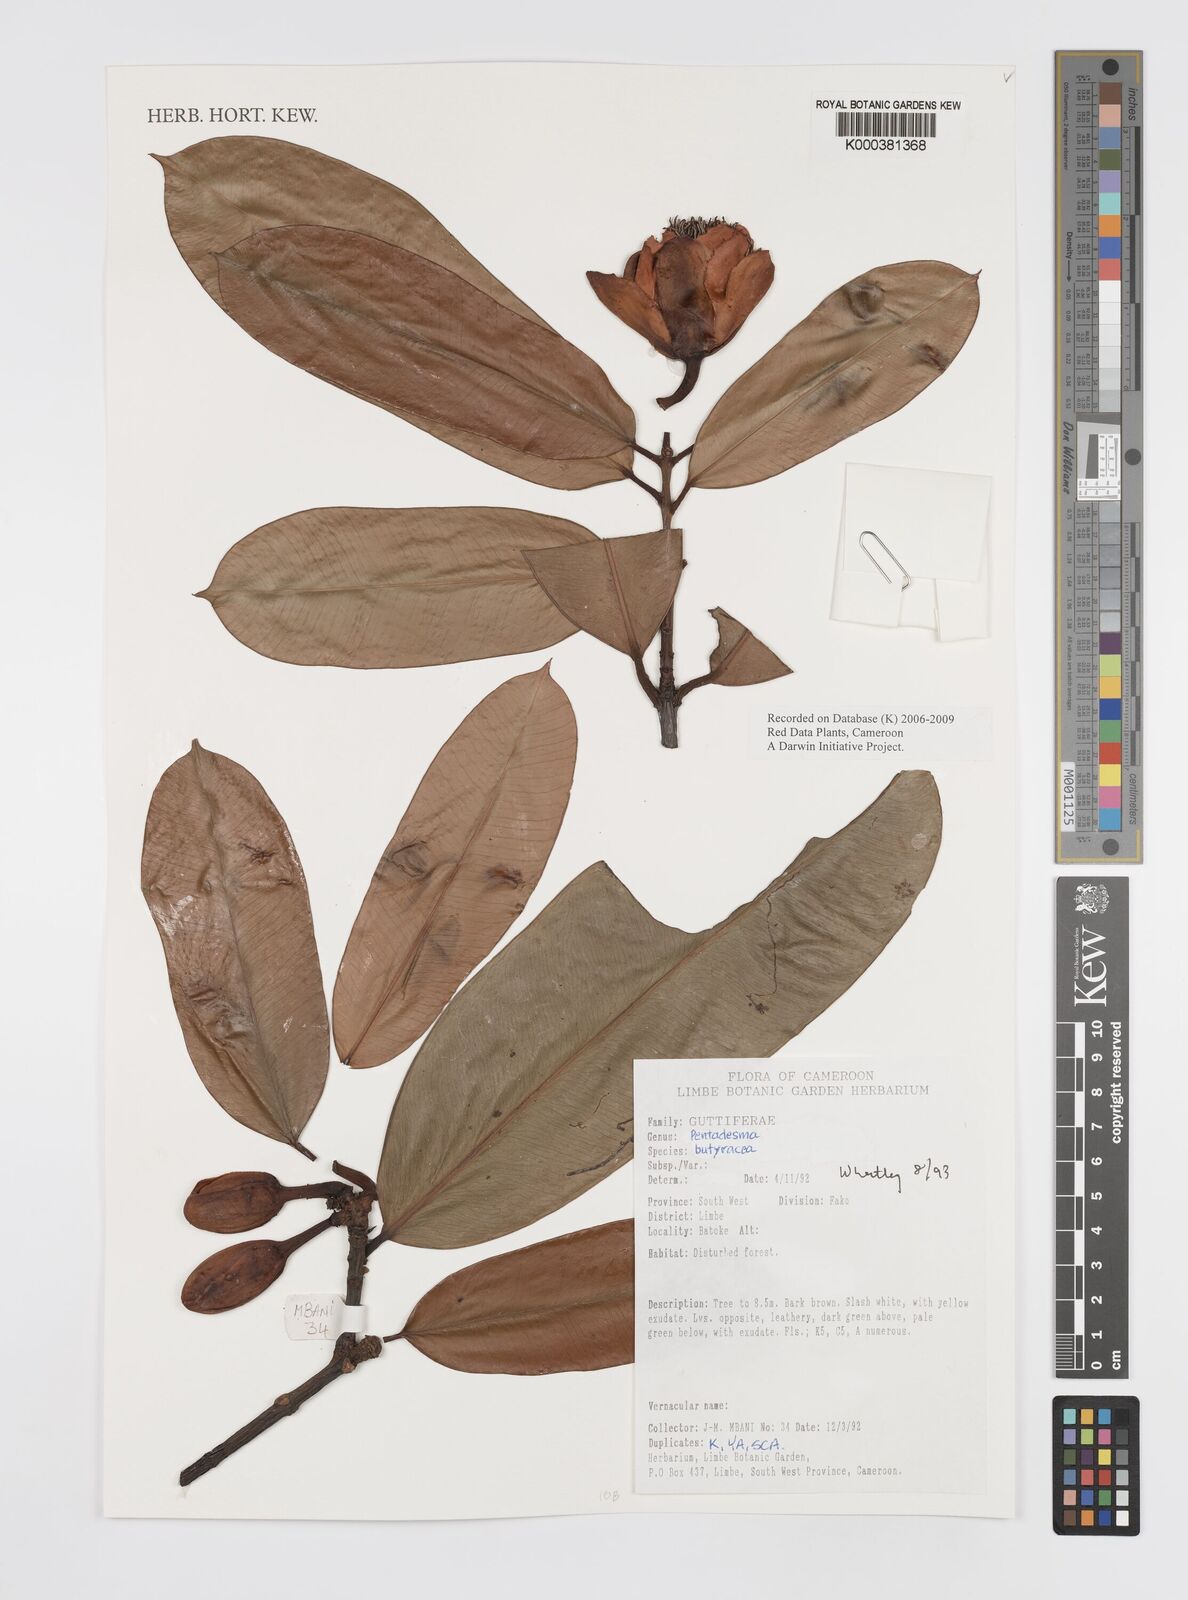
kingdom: Plantae
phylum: Tracheophyta
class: Magnoliopsida
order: Malpighiales
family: Clusiaceae
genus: Pentadesma
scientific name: Pentadesma butyracea
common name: Buttertree
